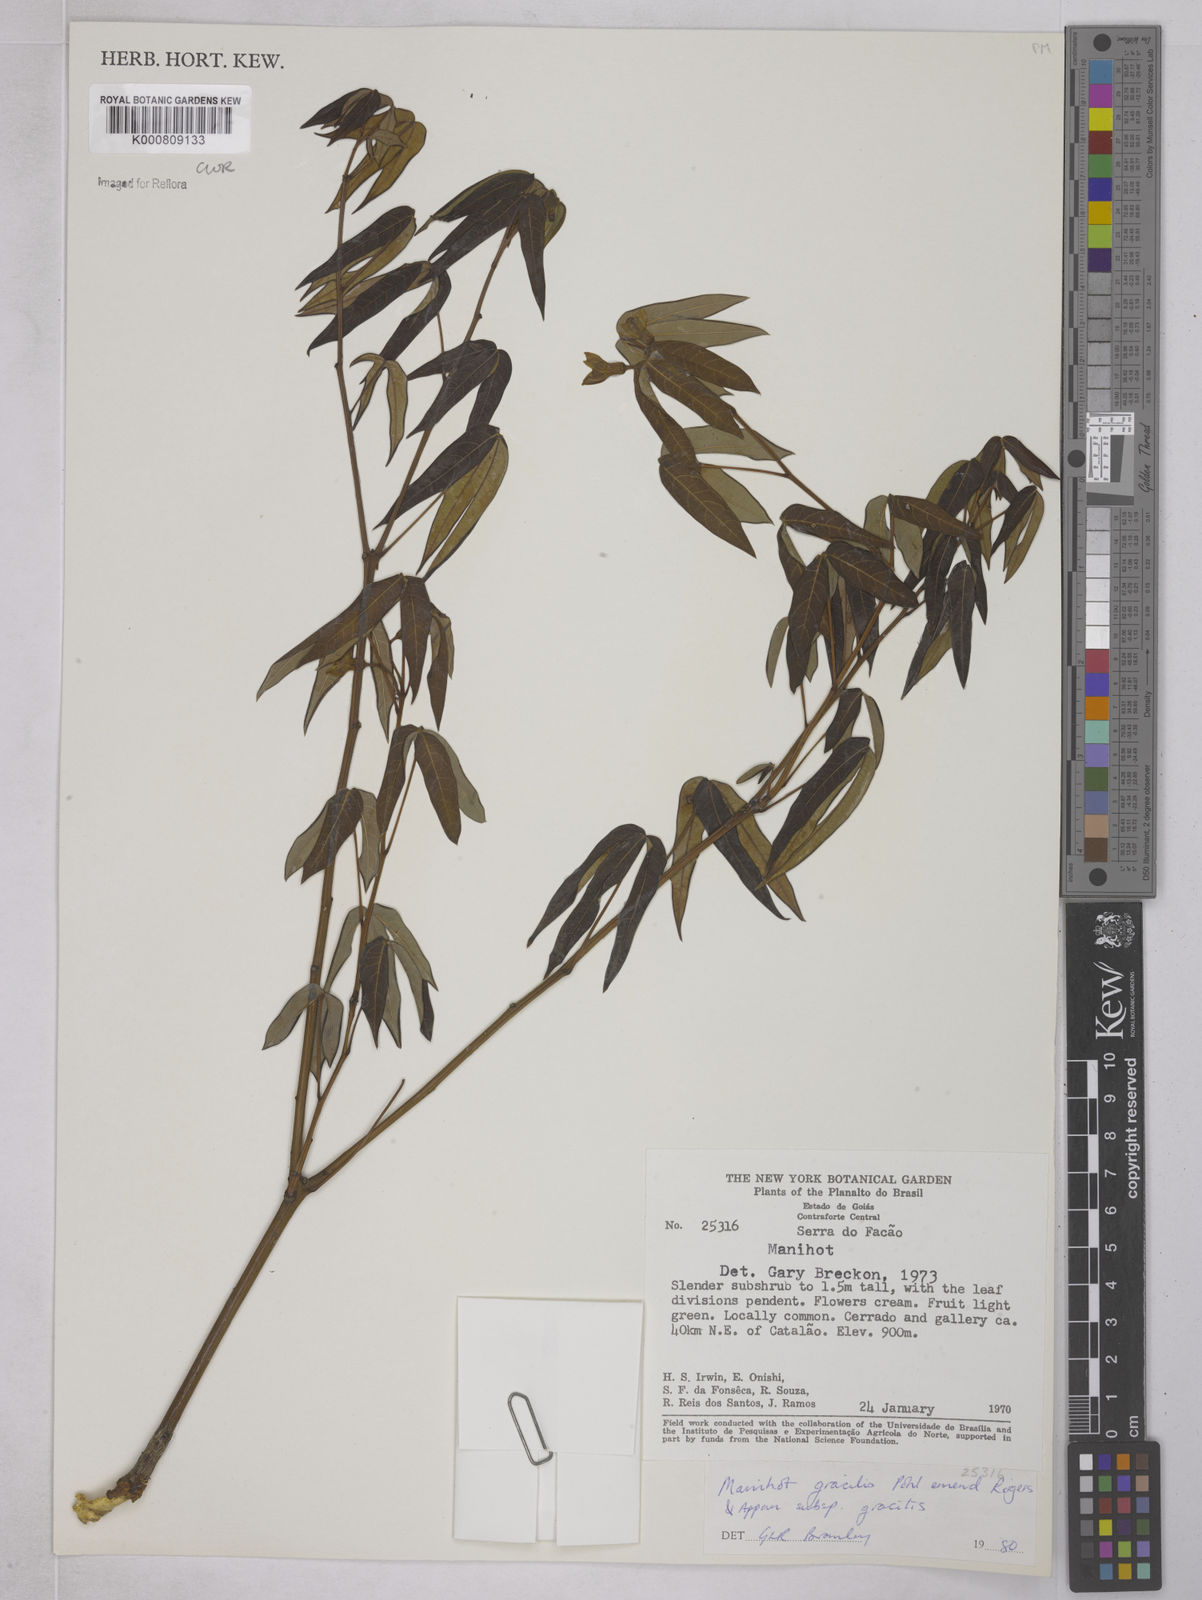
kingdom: Plantae
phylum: Tracheophyta
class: Magnoliopsida
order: Malpighiales
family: Euphorbiaceae
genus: Manihot
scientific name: Manihot gracilis
